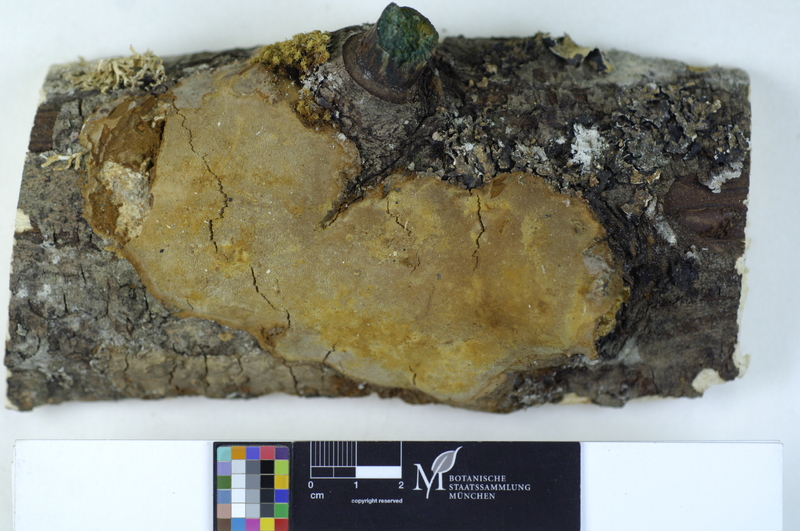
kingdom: Plantae
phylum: Tracheophyta
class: Magnoliopsida
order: Fagales
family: Betulaceae
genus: Betula
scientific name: Betula pubescens
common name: Downy birch
